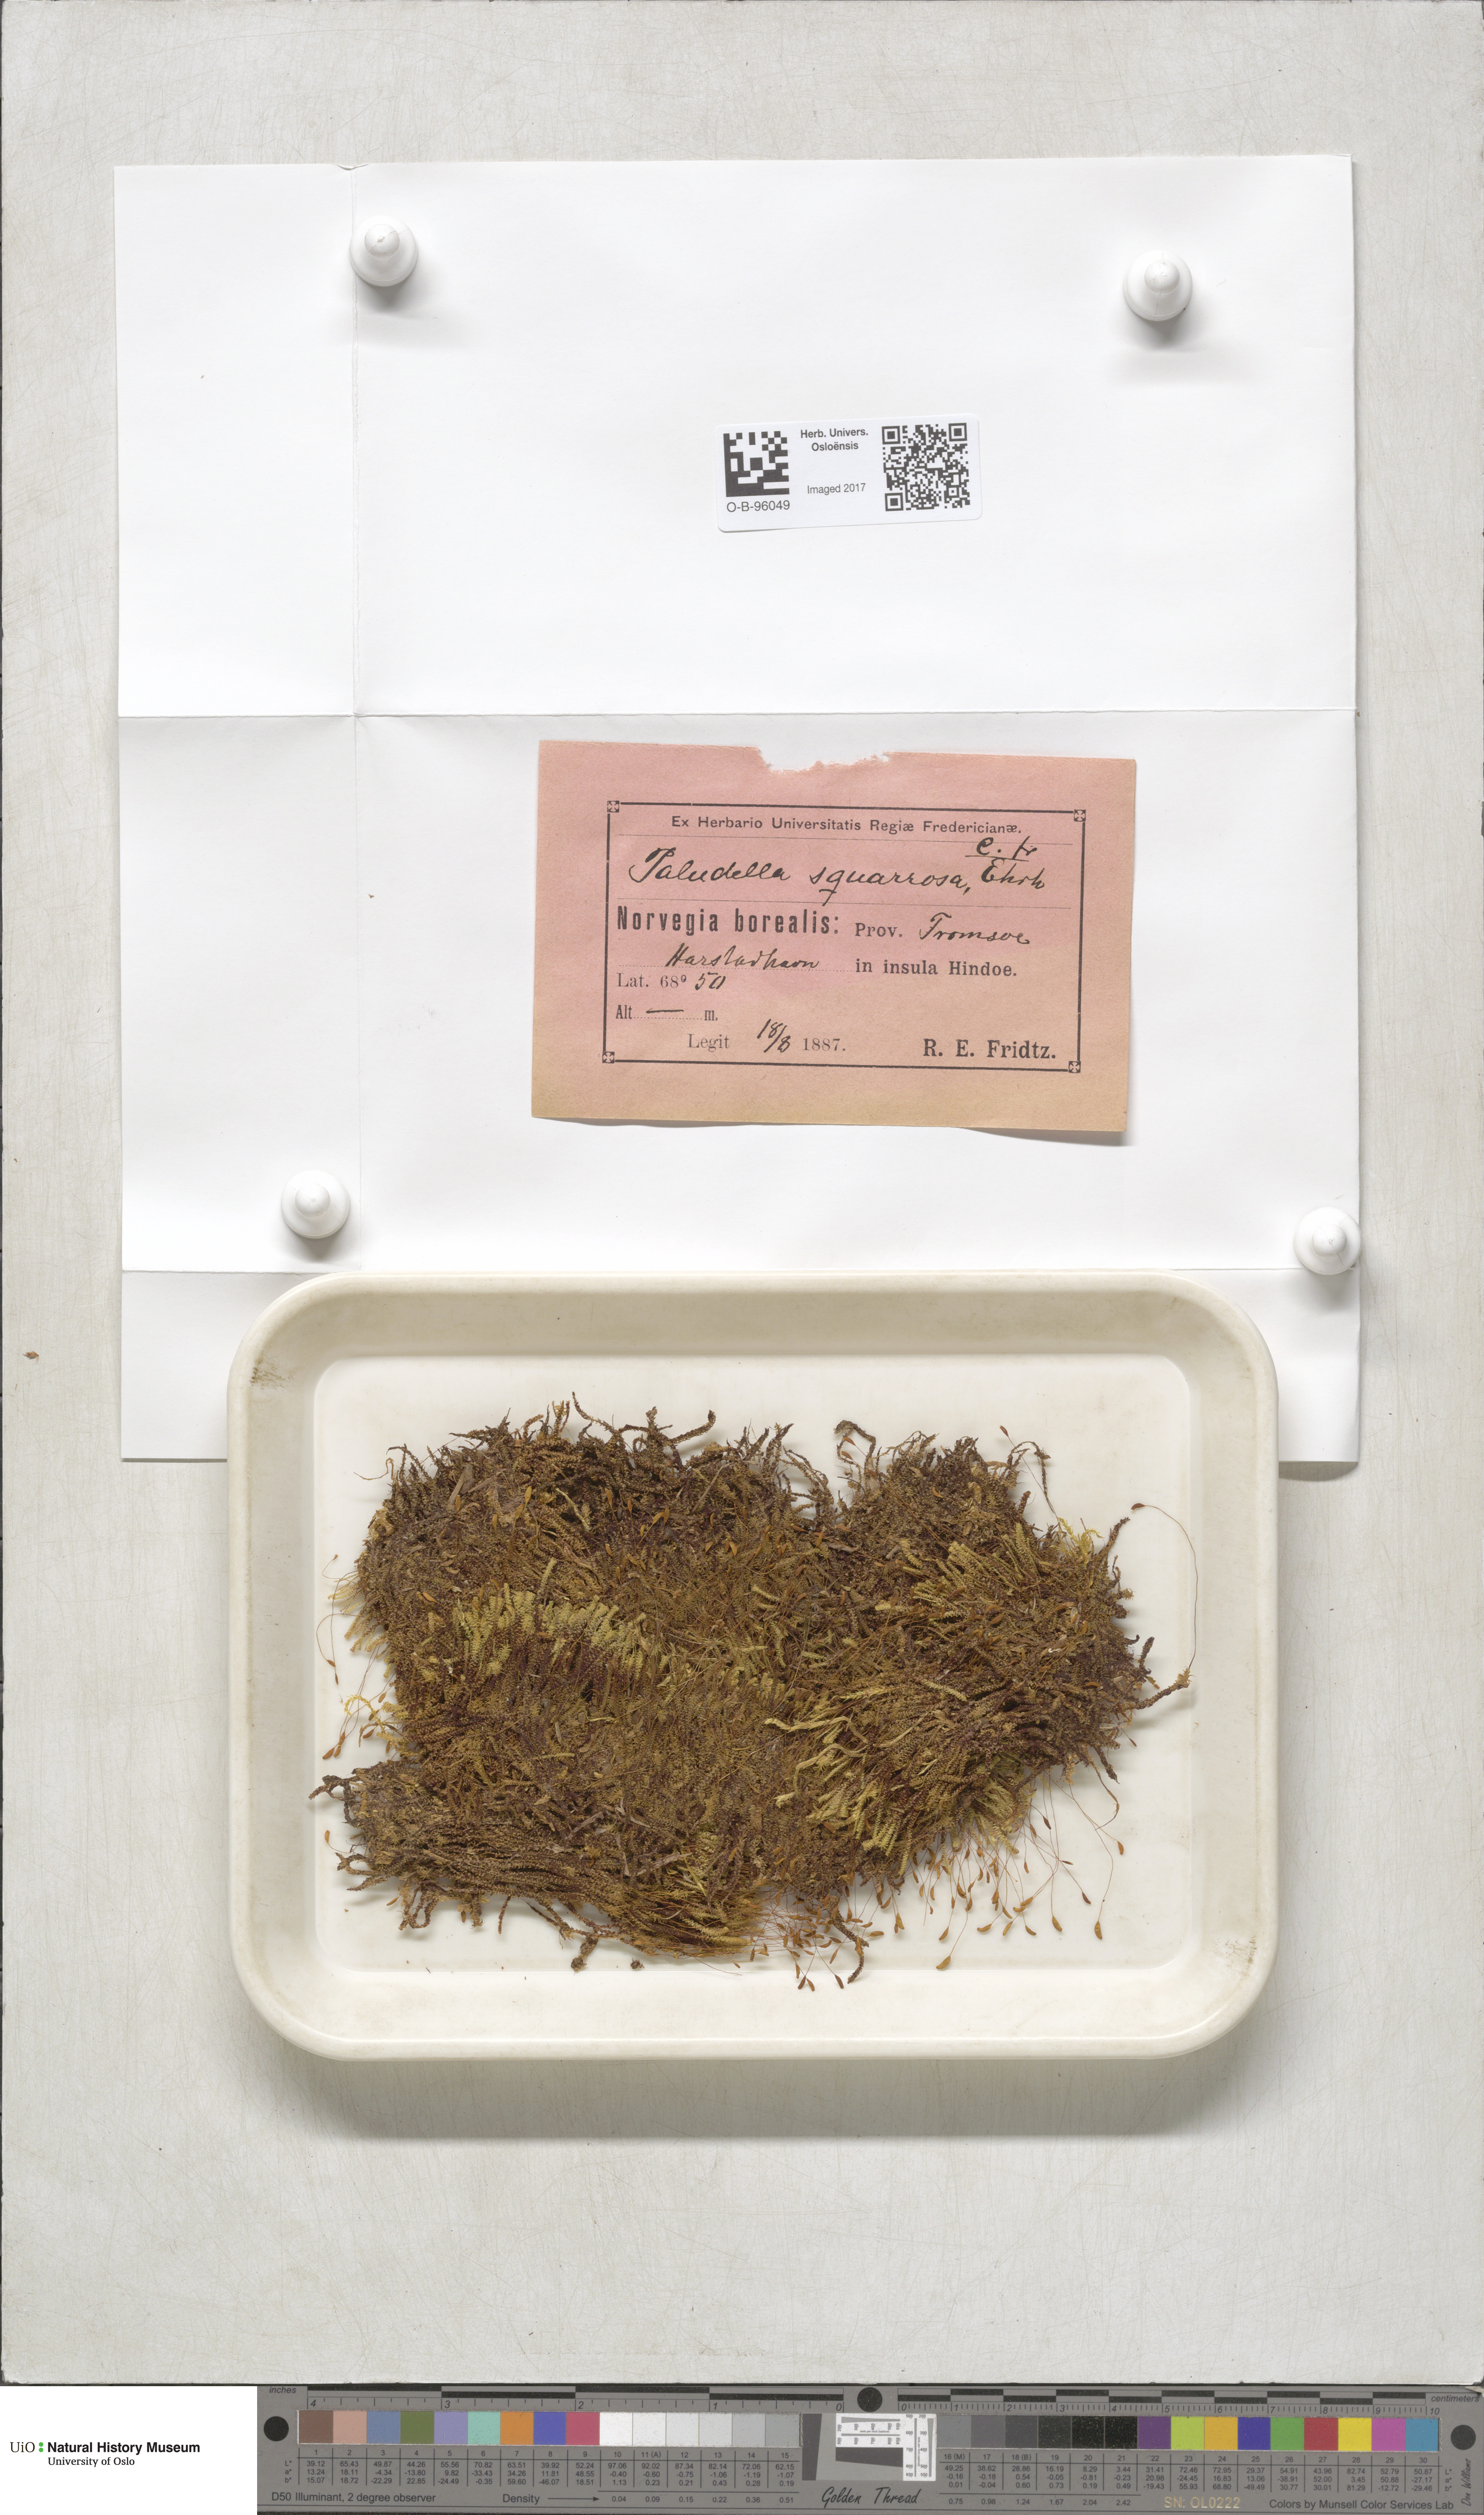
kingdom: Plantae
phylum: Bryophyta
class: Bryopsida
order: Splachnales
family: Meesiaceae
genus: Paludella
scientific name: Paludella squarrosa
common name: Tufted fen moss
